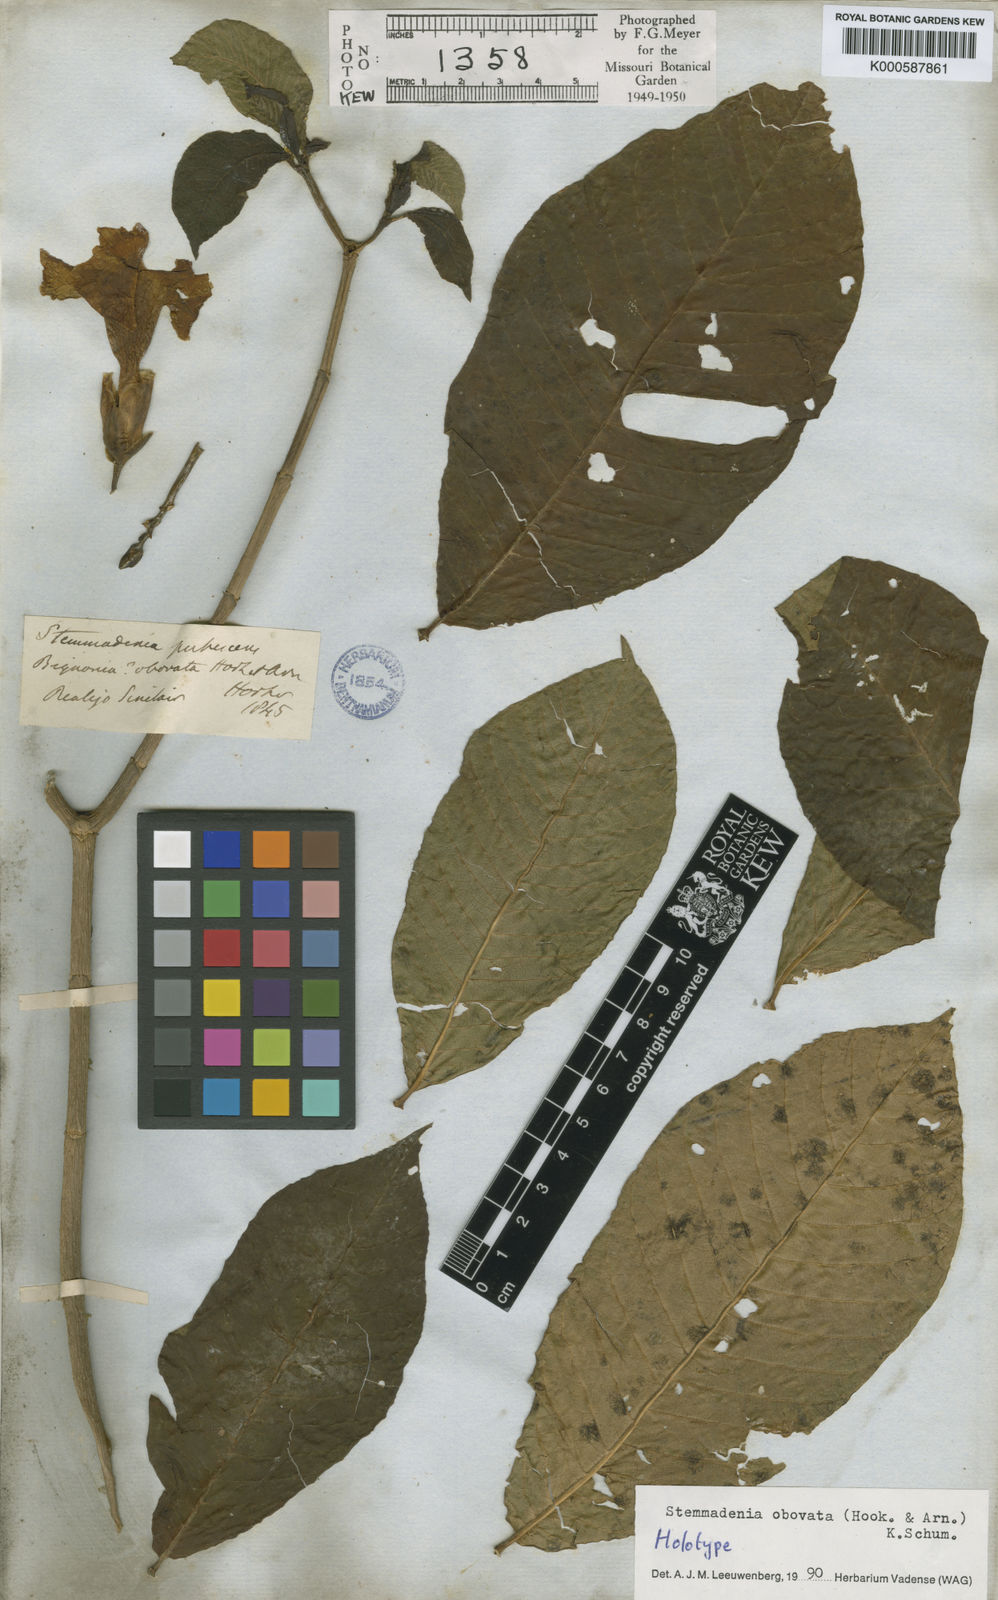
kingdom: Plantae
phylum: Tracheophyta
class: Magnoliopsida
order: Gentianales
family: Apocynaceae
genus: Tabernaemontana
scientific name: Tabernaemontana glabra
